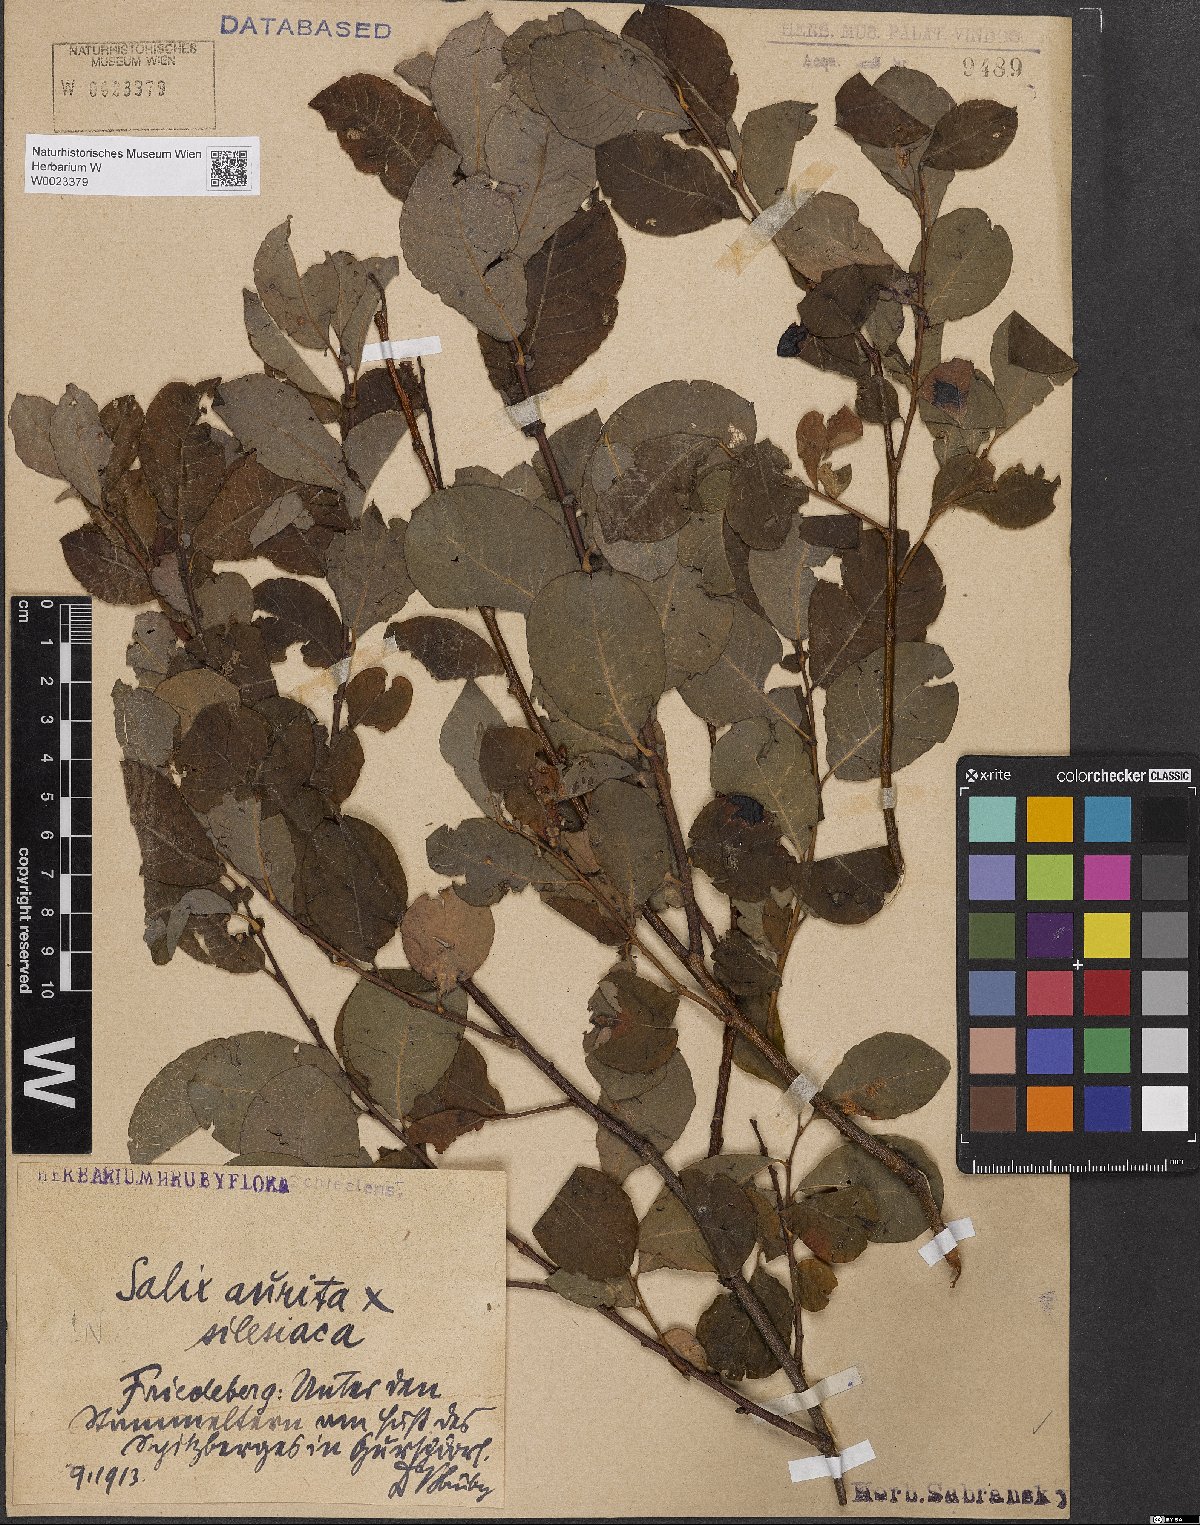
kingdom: Plantae
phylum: Tracheophyta
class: Magnoliopsida
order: Malpighiales
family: Salicaceae
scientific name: Salicaceae
